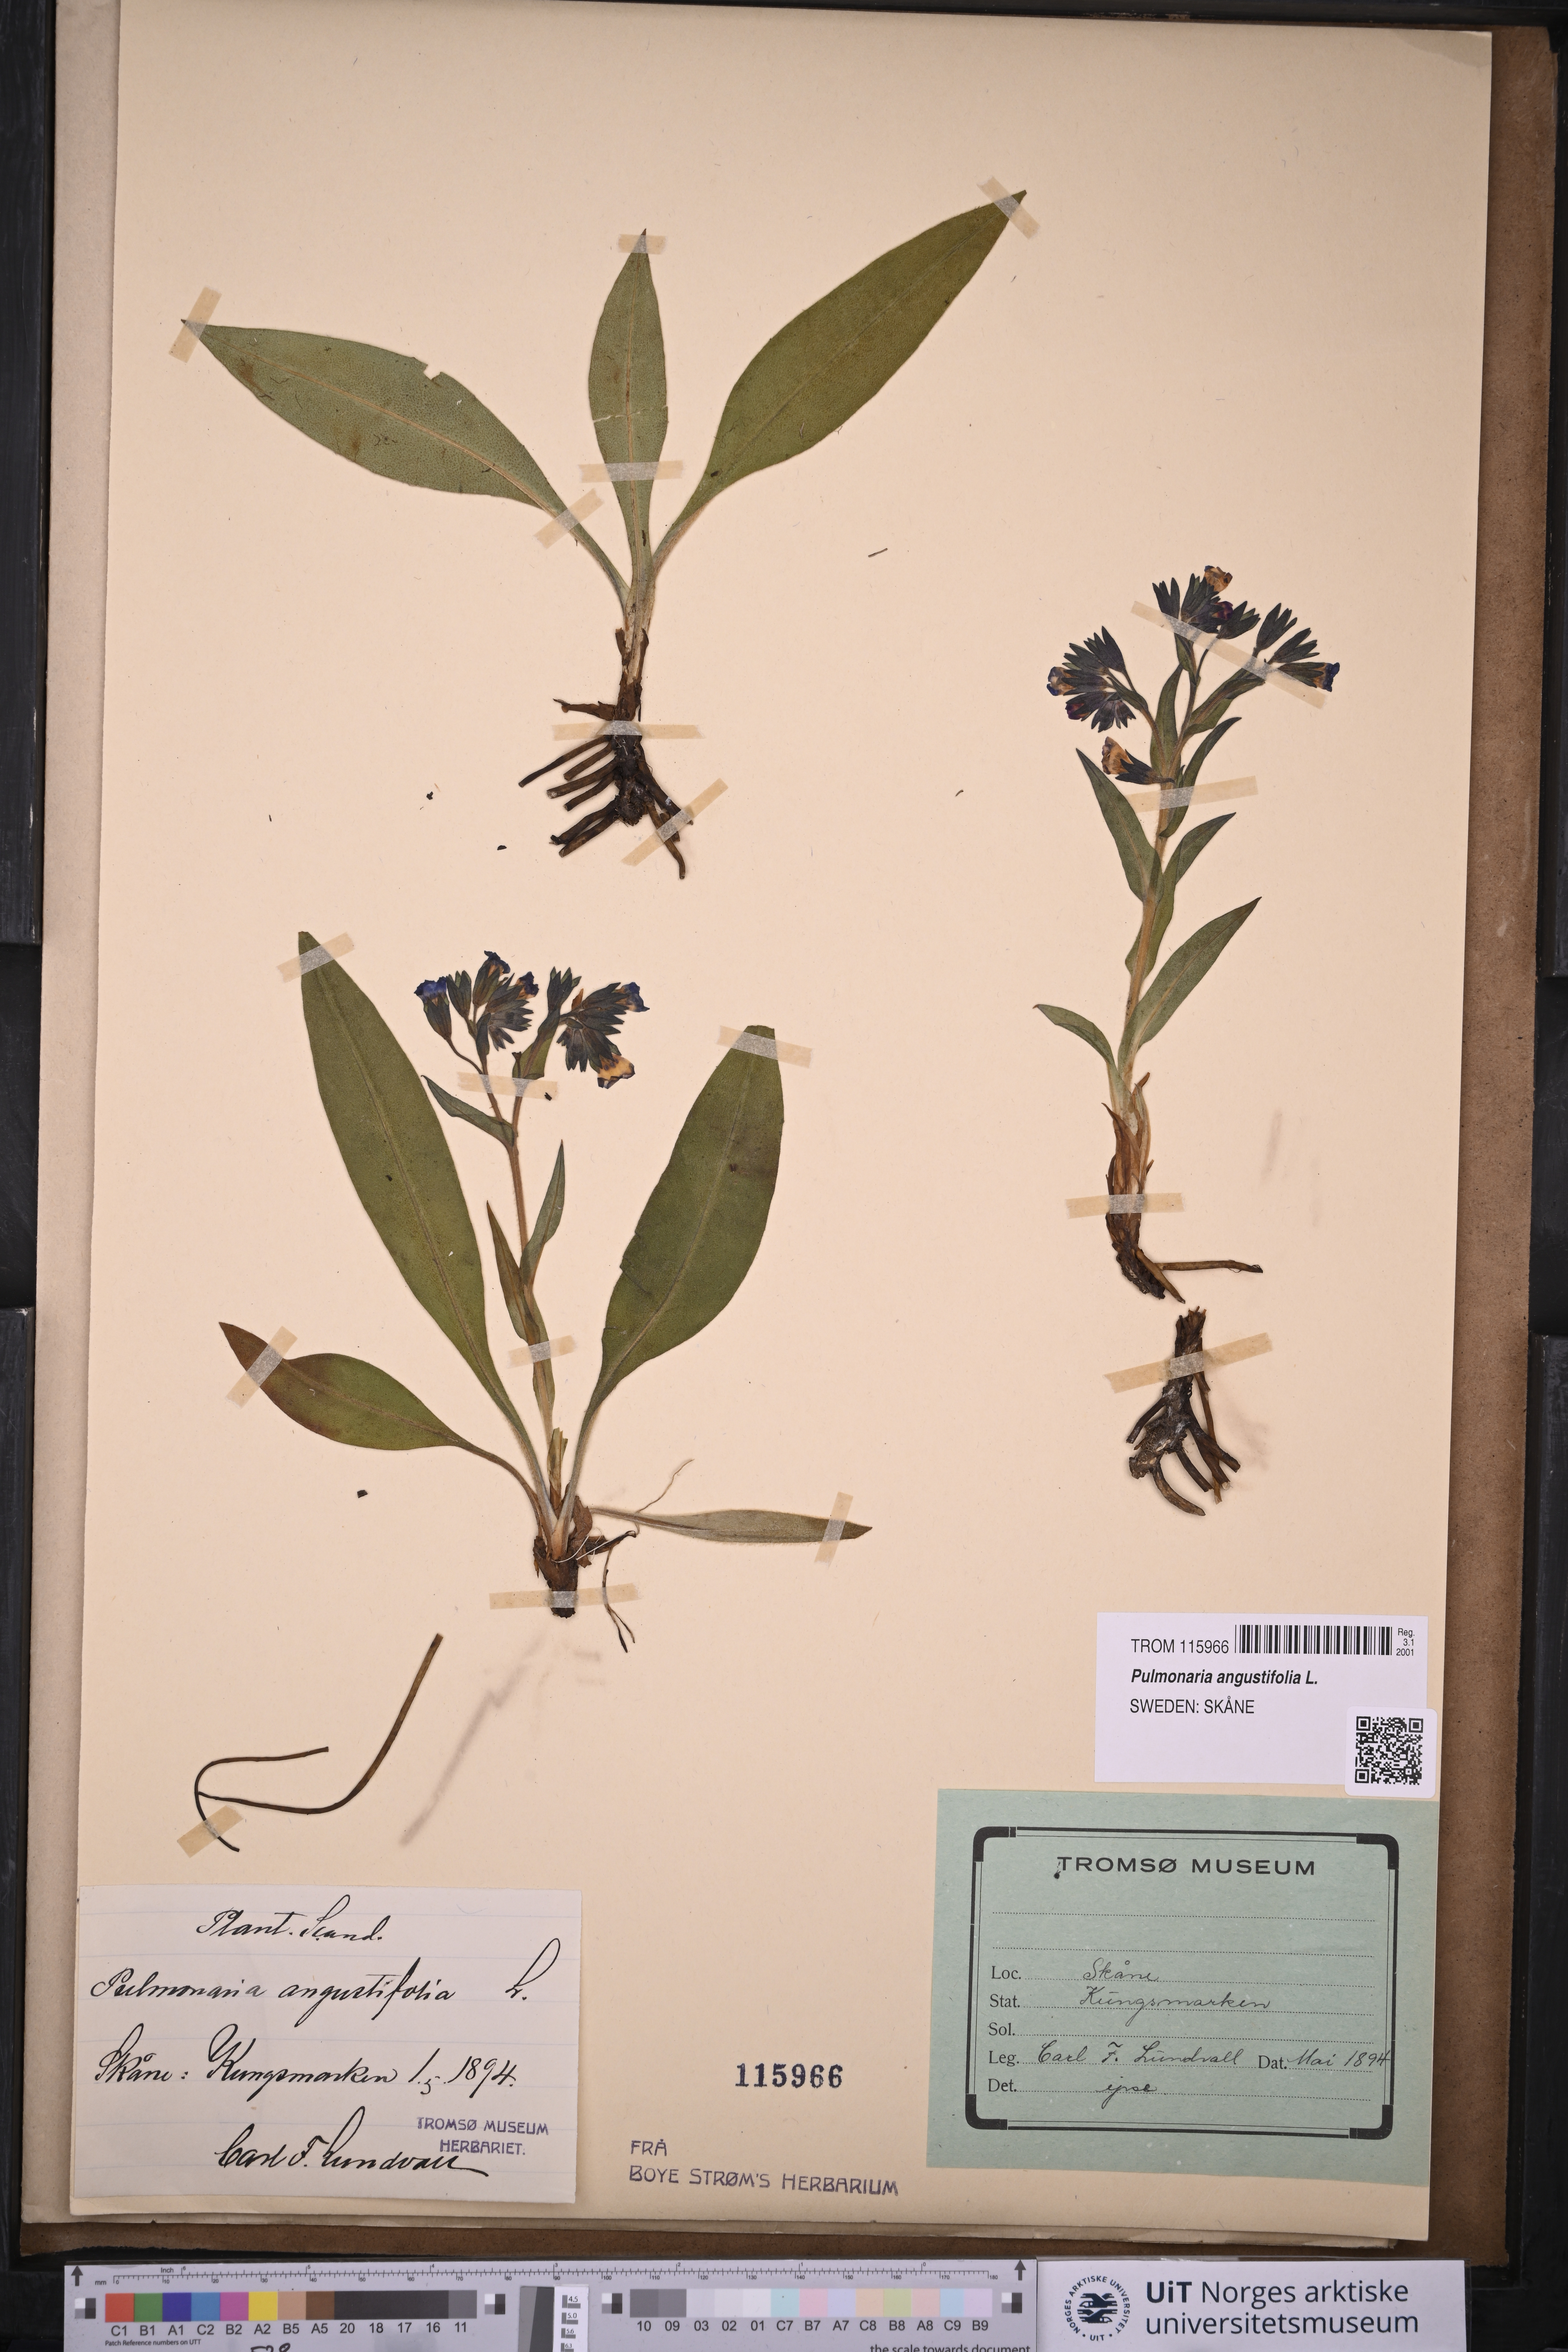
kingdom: Plantae
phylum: Tracheophyta
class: Magnoliopsida
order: Boraginales
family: Boraginaceae
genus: Pulmonaria
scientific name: Pulmonaria angustifolia
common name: Blue cowslip
